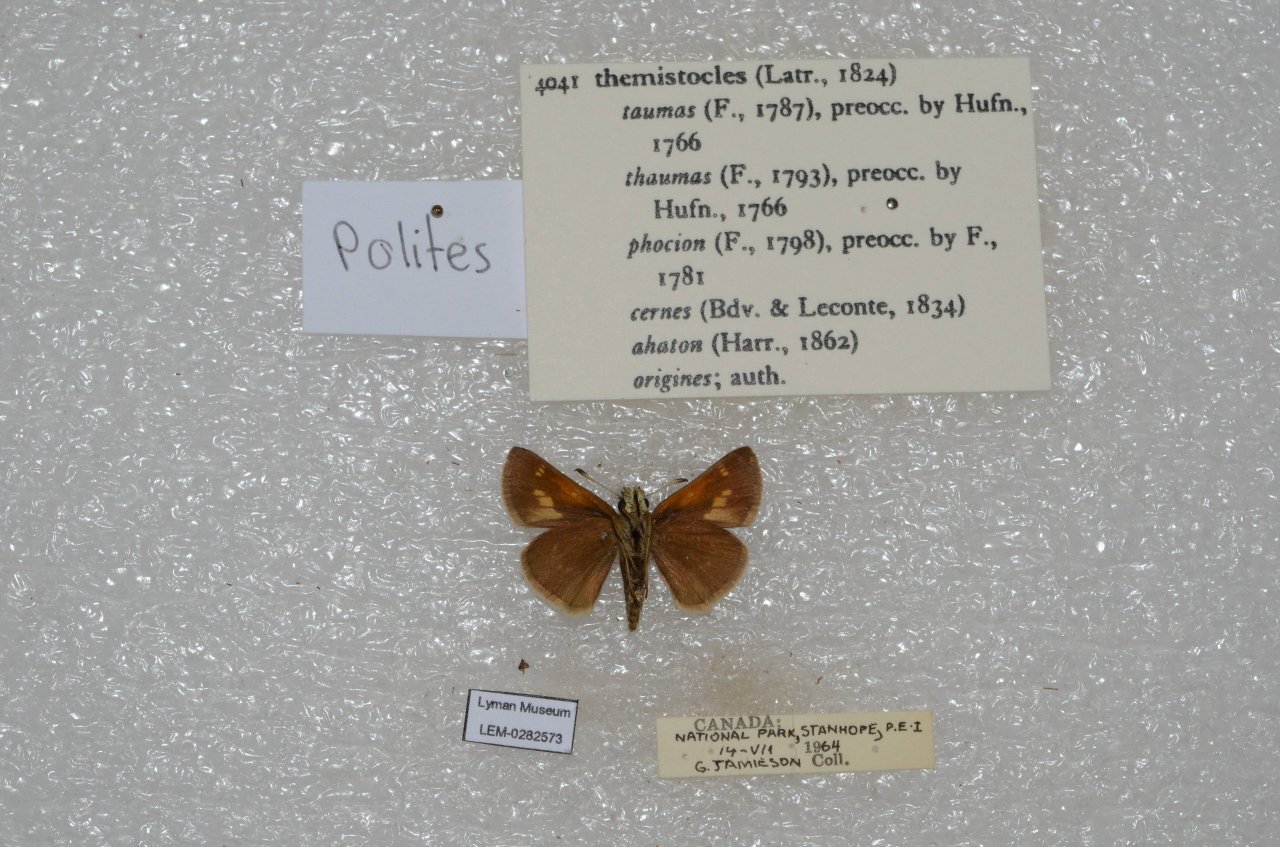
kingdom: Animalia
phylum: Arthropoda
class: Insecta
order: Lepidoptera
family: Hesperiidae
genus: Polites
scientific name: Polites themistocles
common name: Tawny-edged Skipper
